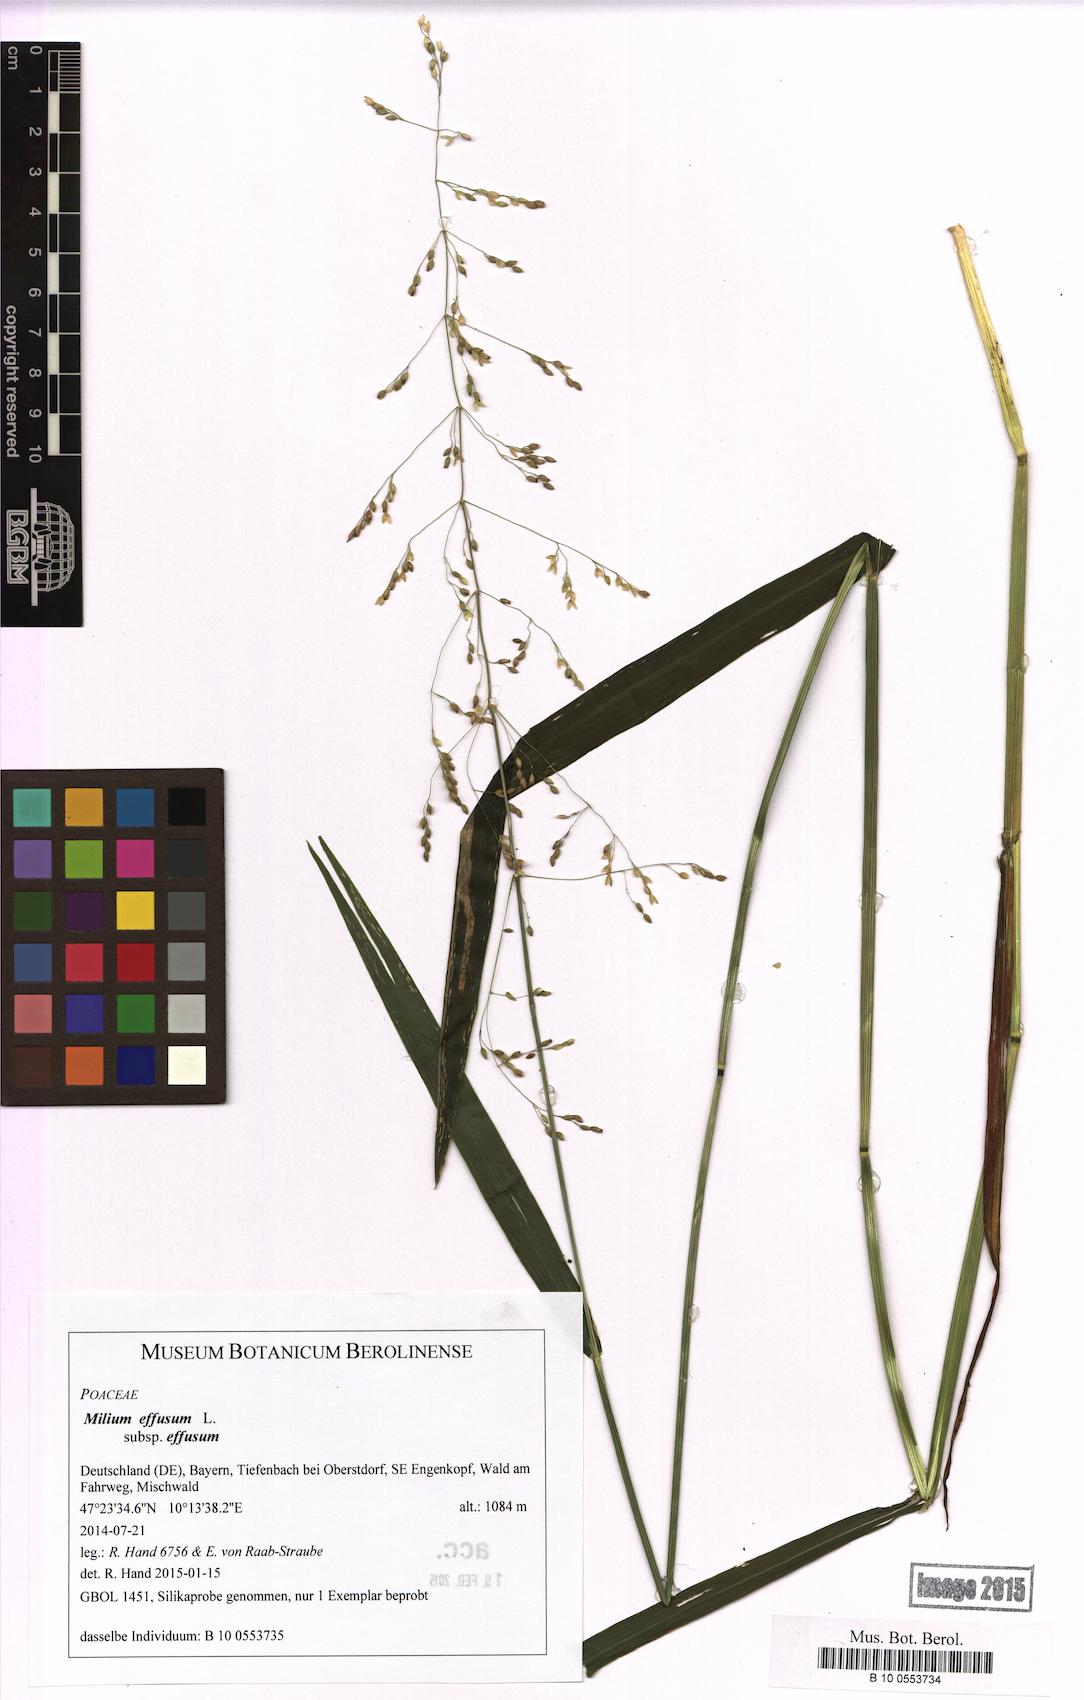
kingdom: Plantae
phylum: Tracheophyta
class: Liliopsida
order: Poales
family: Poaceae
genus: Milium
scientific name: Milium effusum
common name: Wood millet
